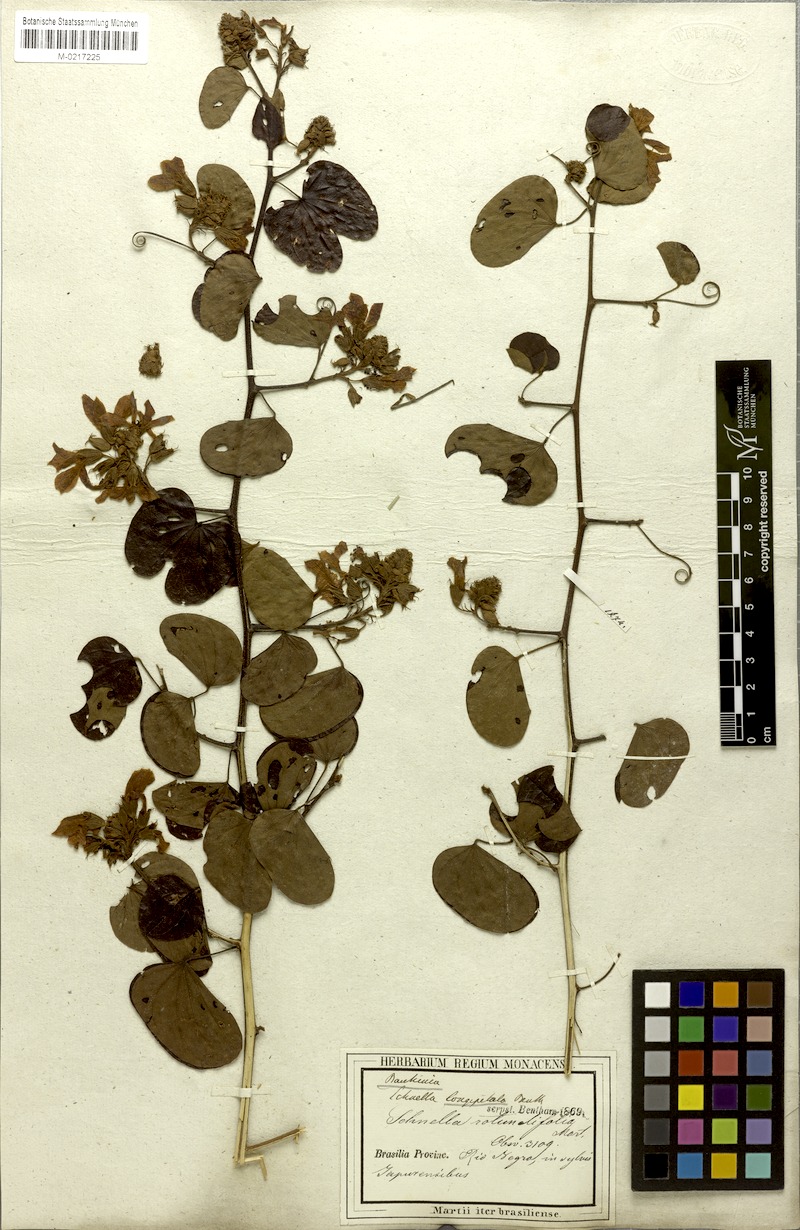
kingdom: Plantae
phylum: Tracheophyta
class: Magnoliopsida
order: Fabales
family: Fabaceae
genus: Schnella
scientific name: Schnella
